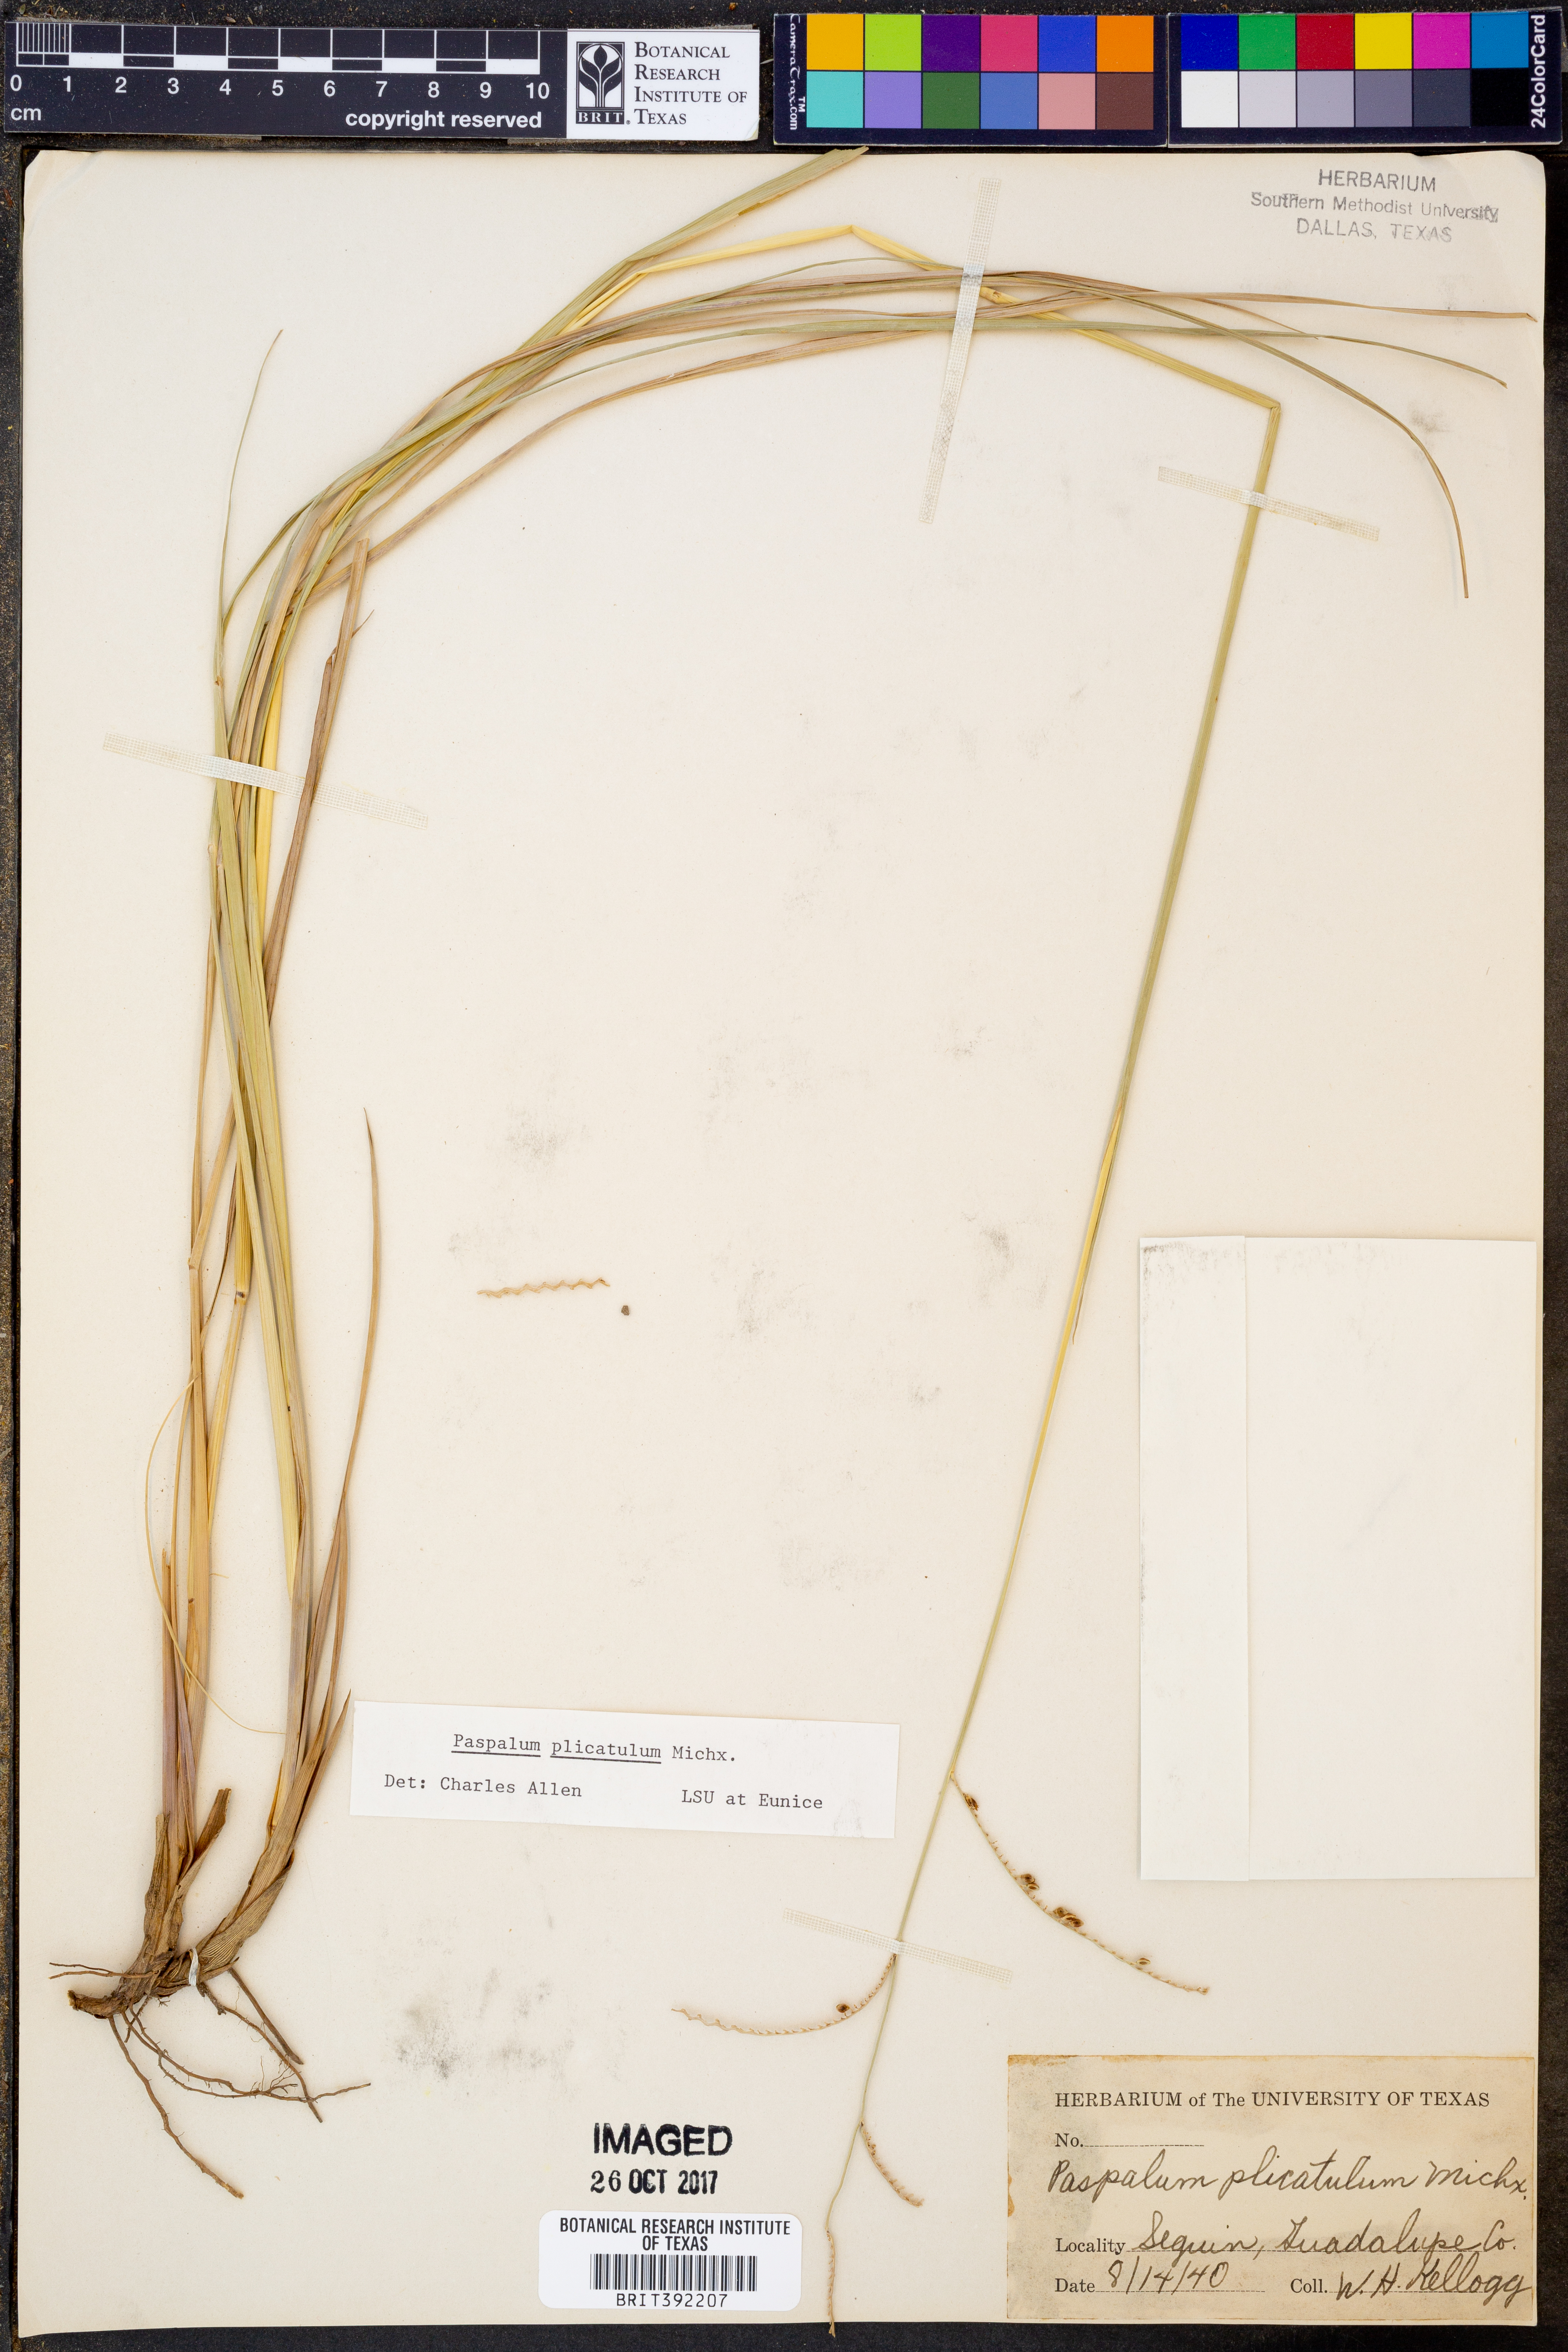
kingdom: Plantae
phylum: Tracheophyta
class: Liliopsida
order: Poales
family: Poaceae
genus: Paspalum
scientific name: Paspalum plicatulum
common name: Top paspalum
